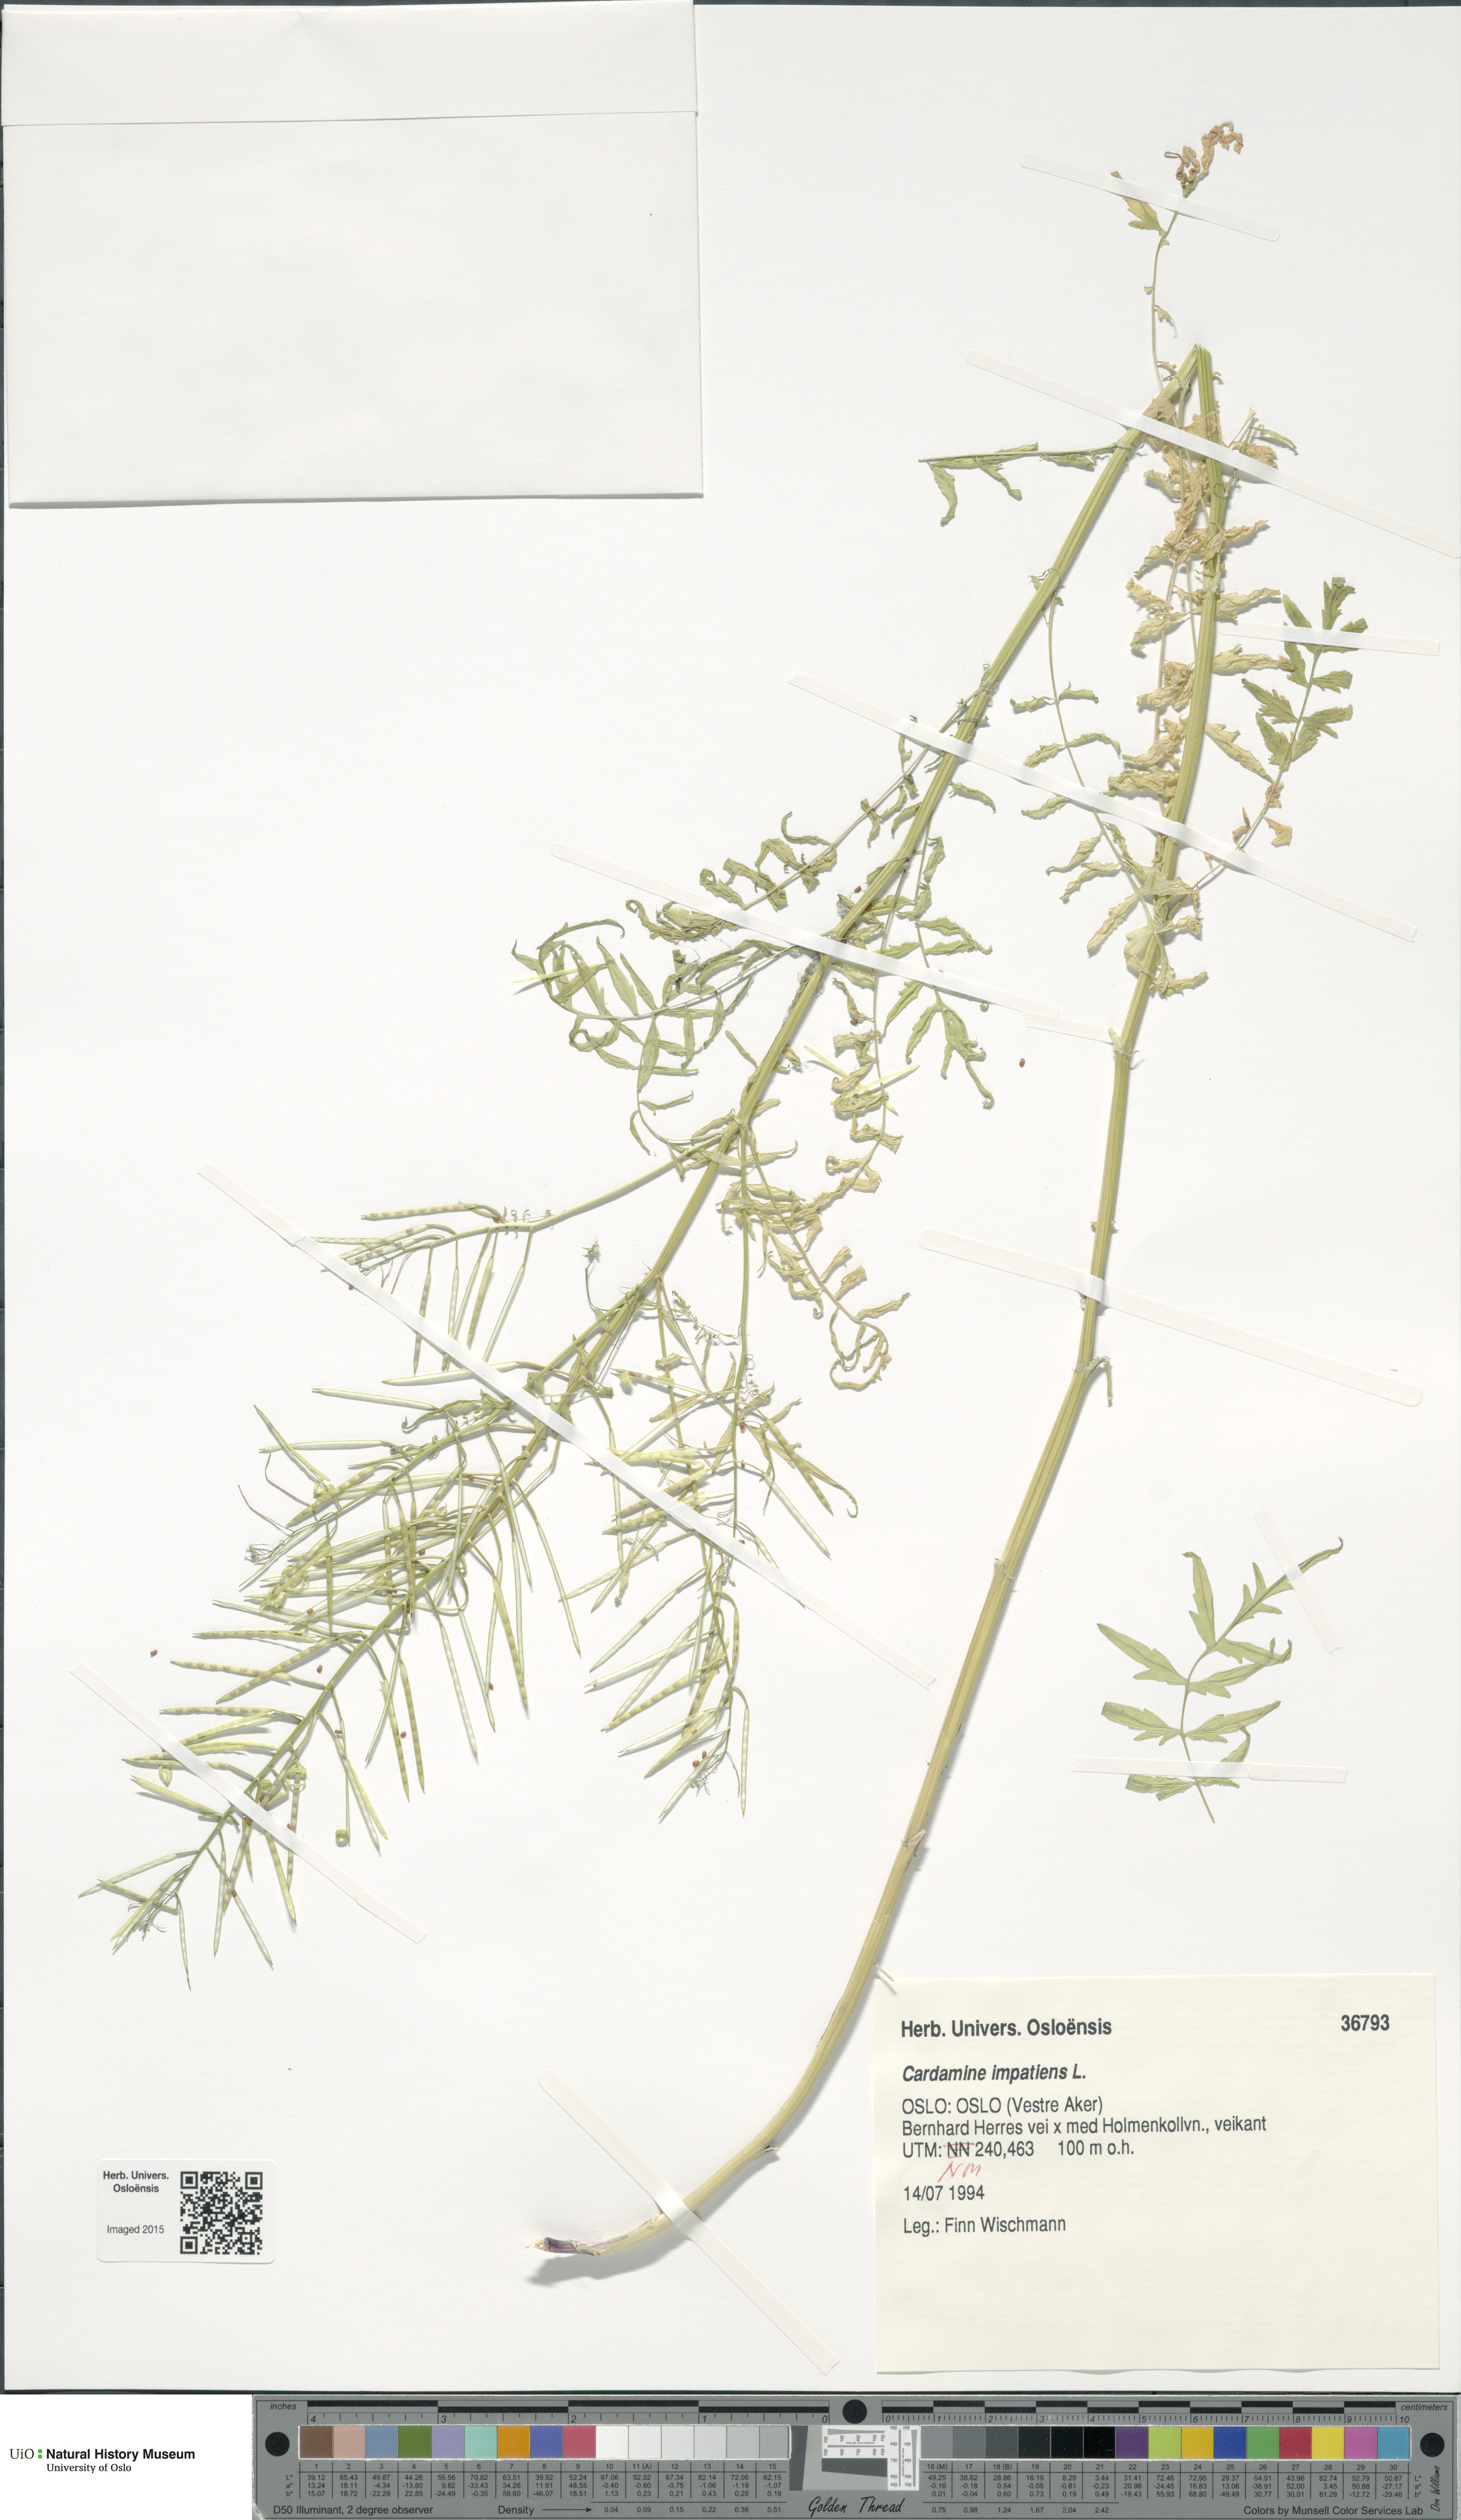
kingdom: Plantae
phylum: Tracheophyta
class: Magnoliopsida
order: Brassicales
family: Brassicaceae
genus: Cardamine
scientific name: Cardamine impatiens
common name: Narrow-leaved bitter-cress
